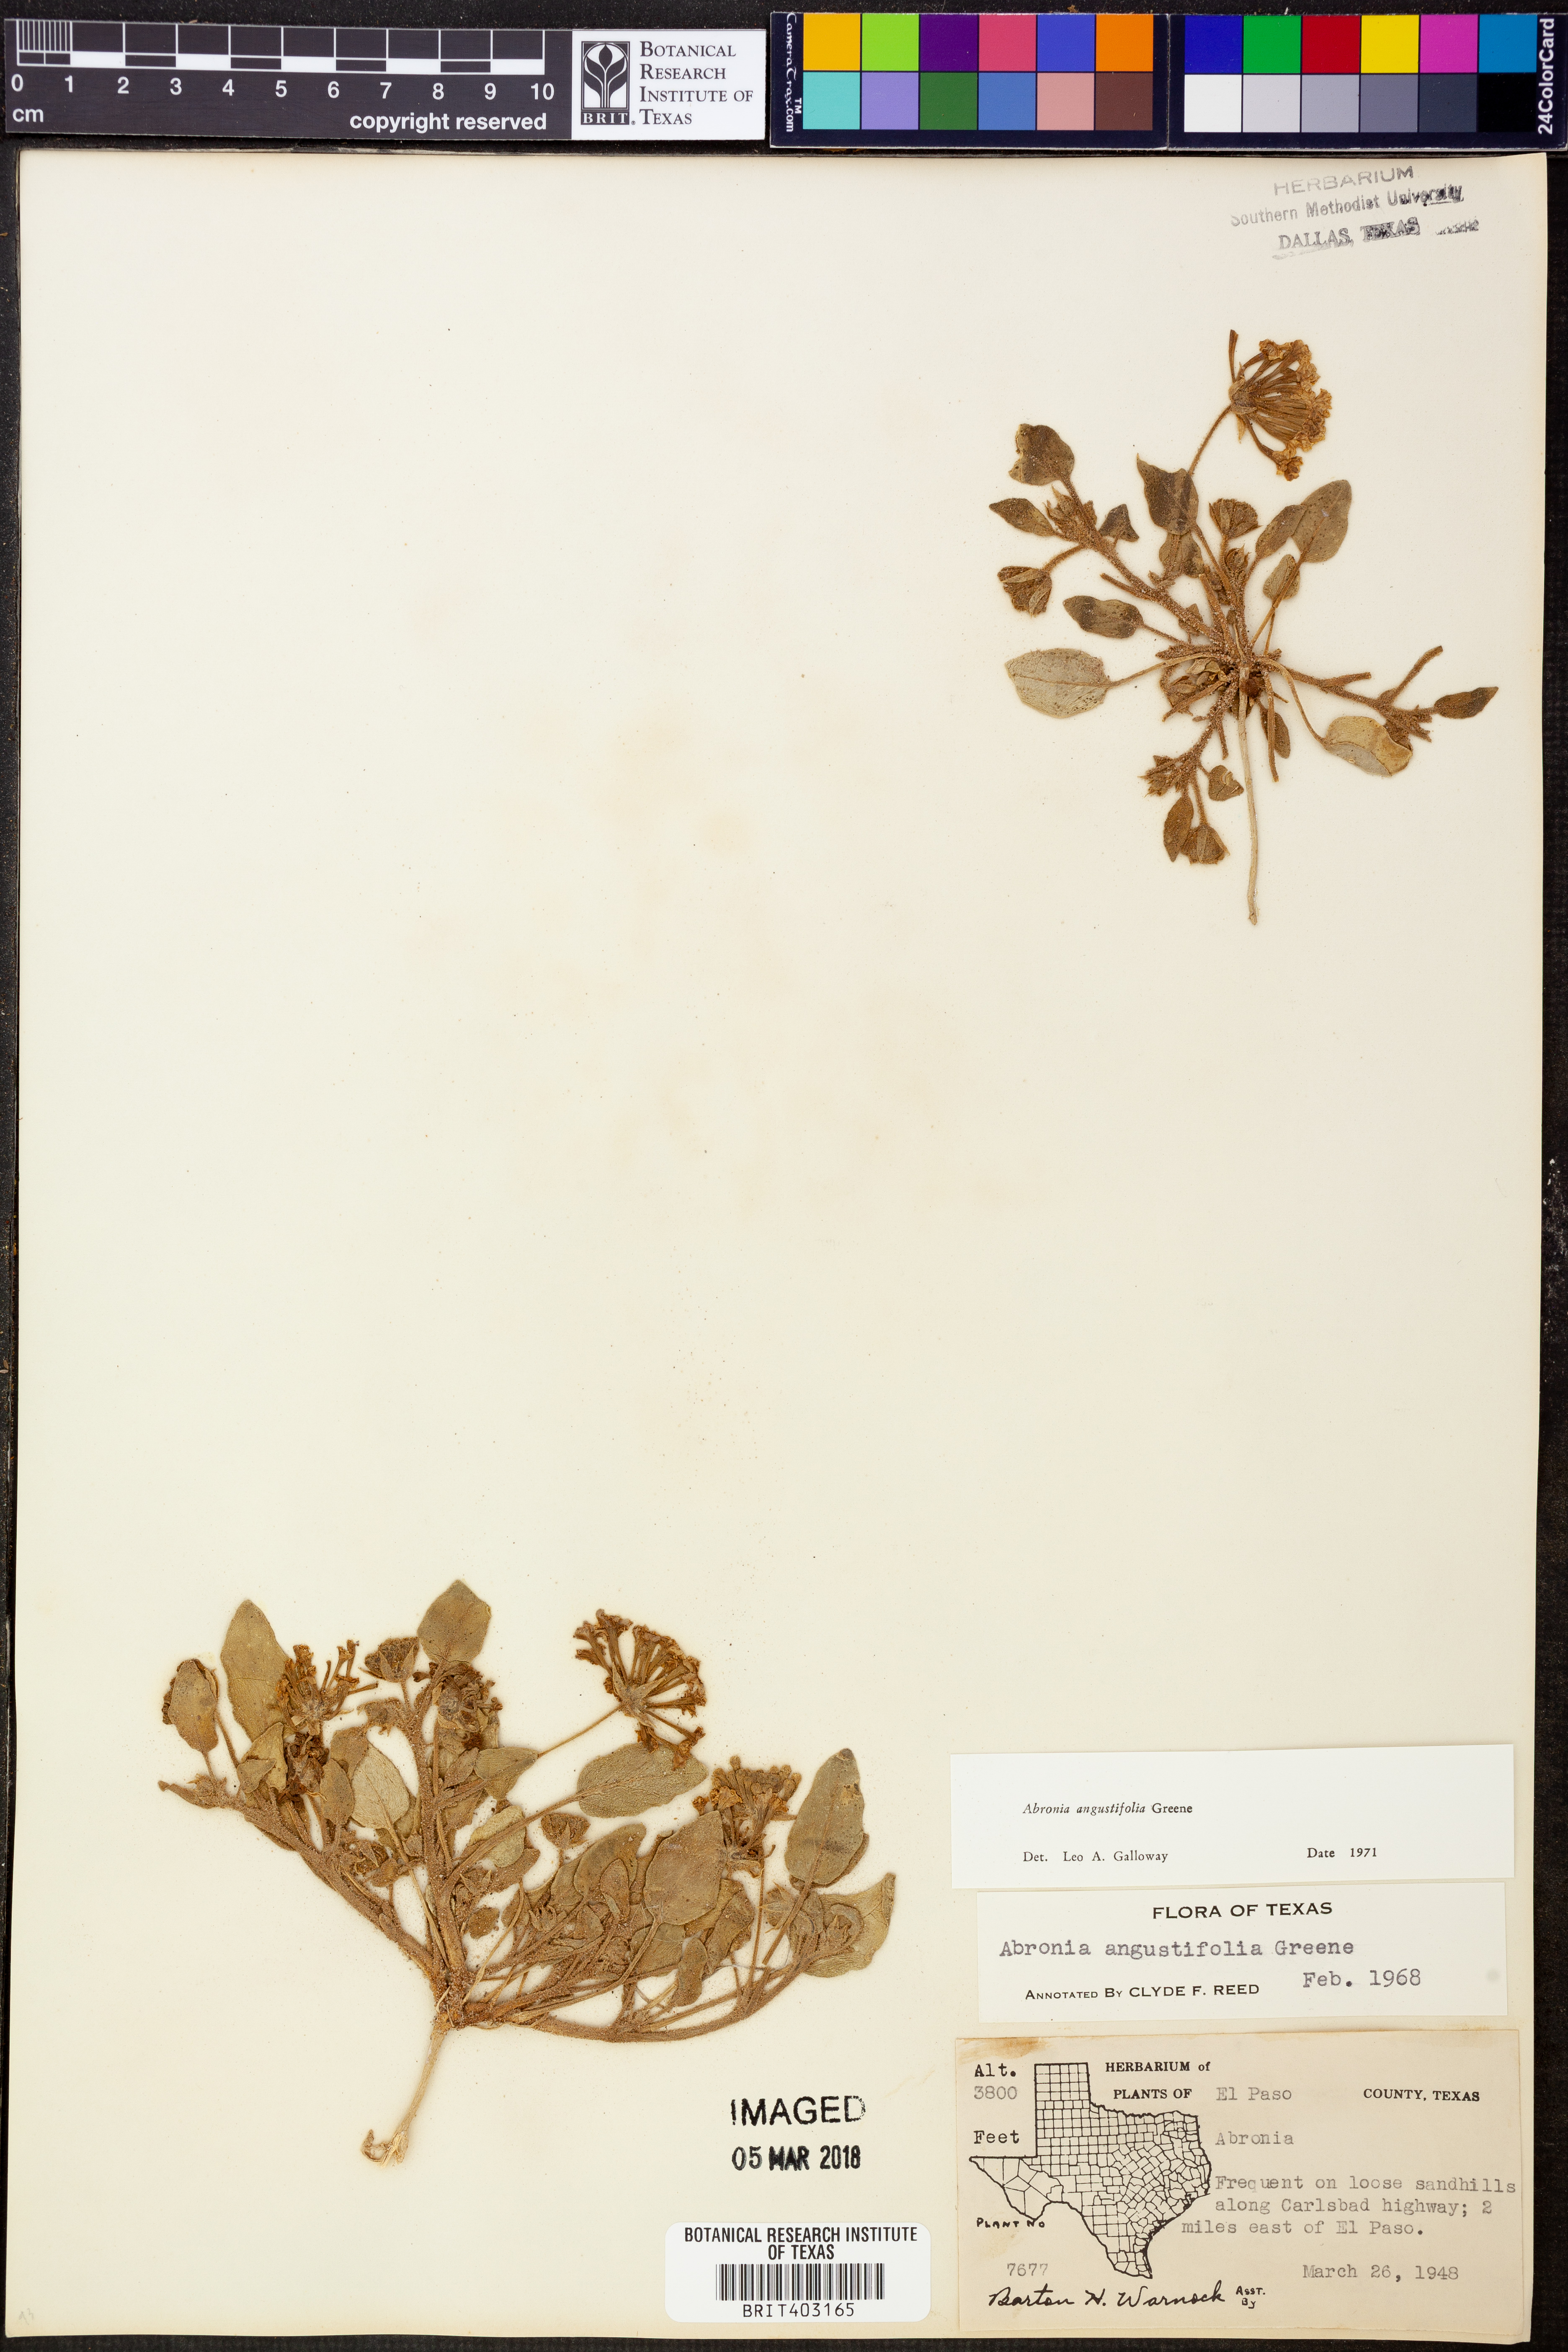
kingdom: Plantae
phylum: Tracheophyta
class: Magnoliopsida
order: Caryophyllales
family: Nyctaginaceae
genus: Abronia
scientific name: Abronia angustifolia
